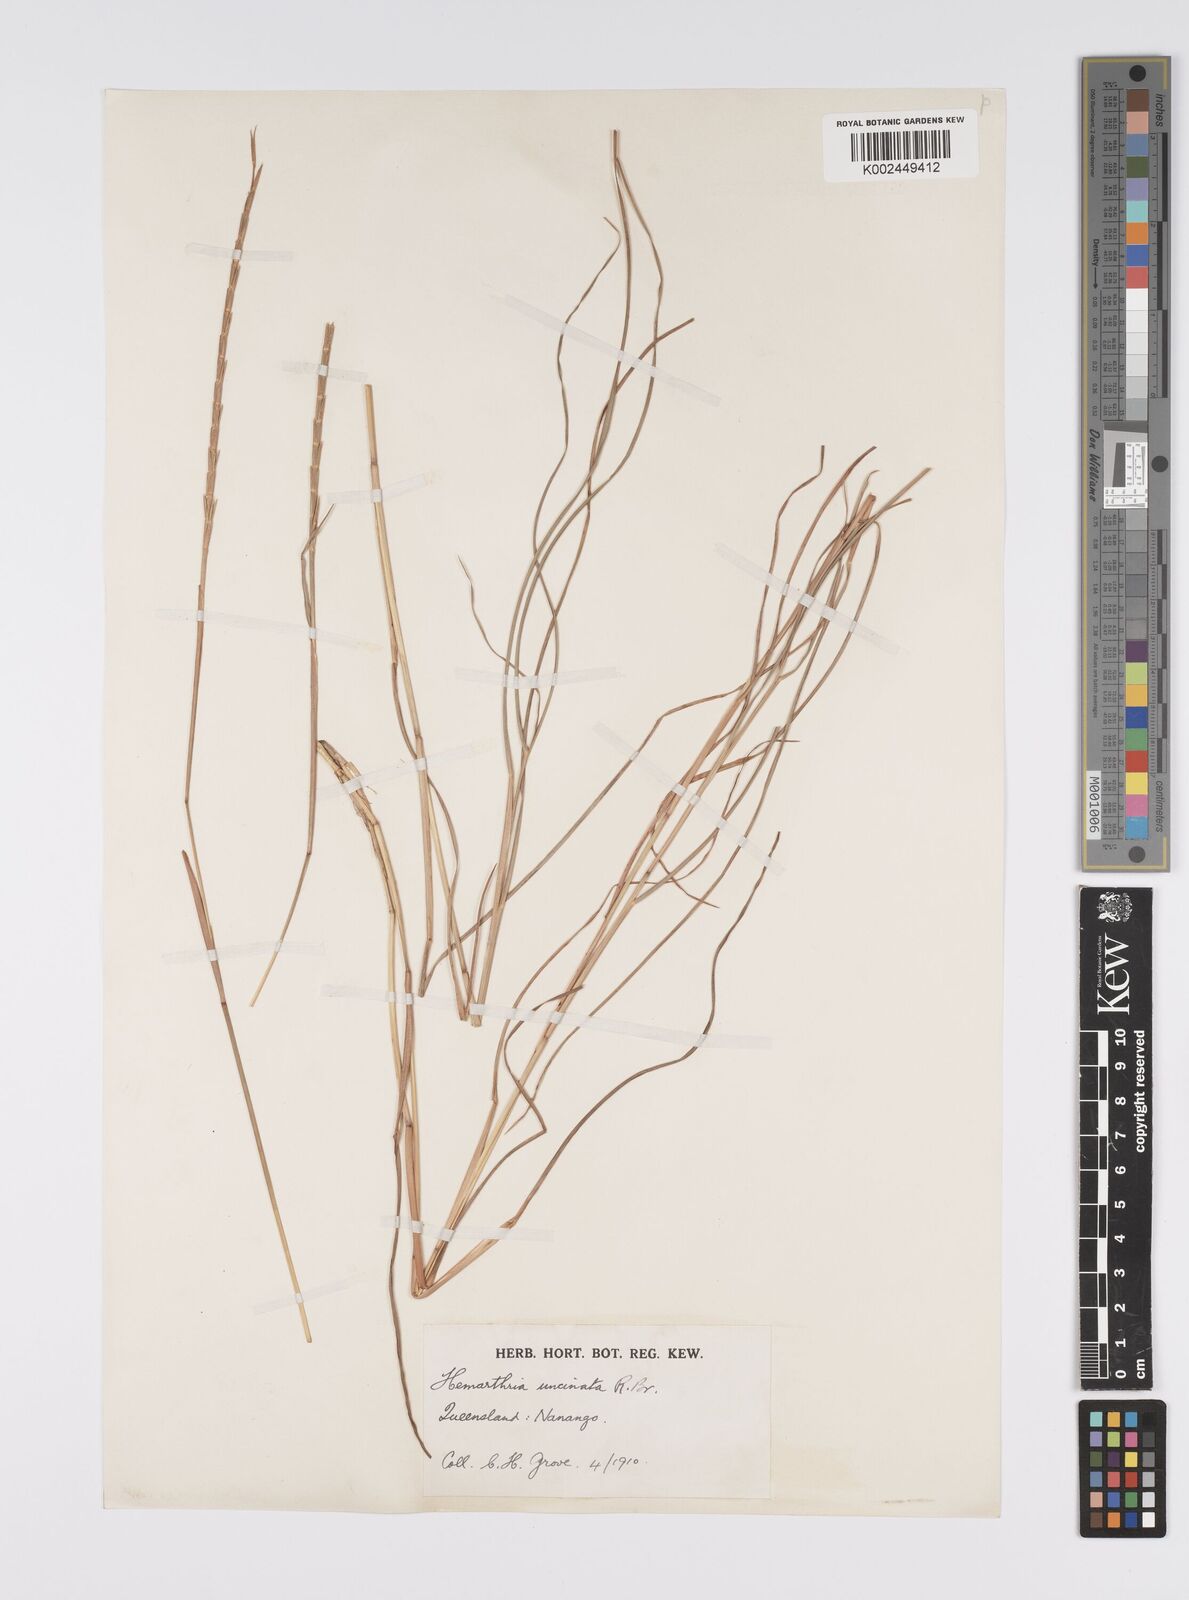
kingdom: Plantae
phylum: Tracheophyta
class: Liliopsida
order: Poales
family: Poaceae
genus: Hemarthria
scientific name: Hemarthria uncinata
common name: Matgrass
